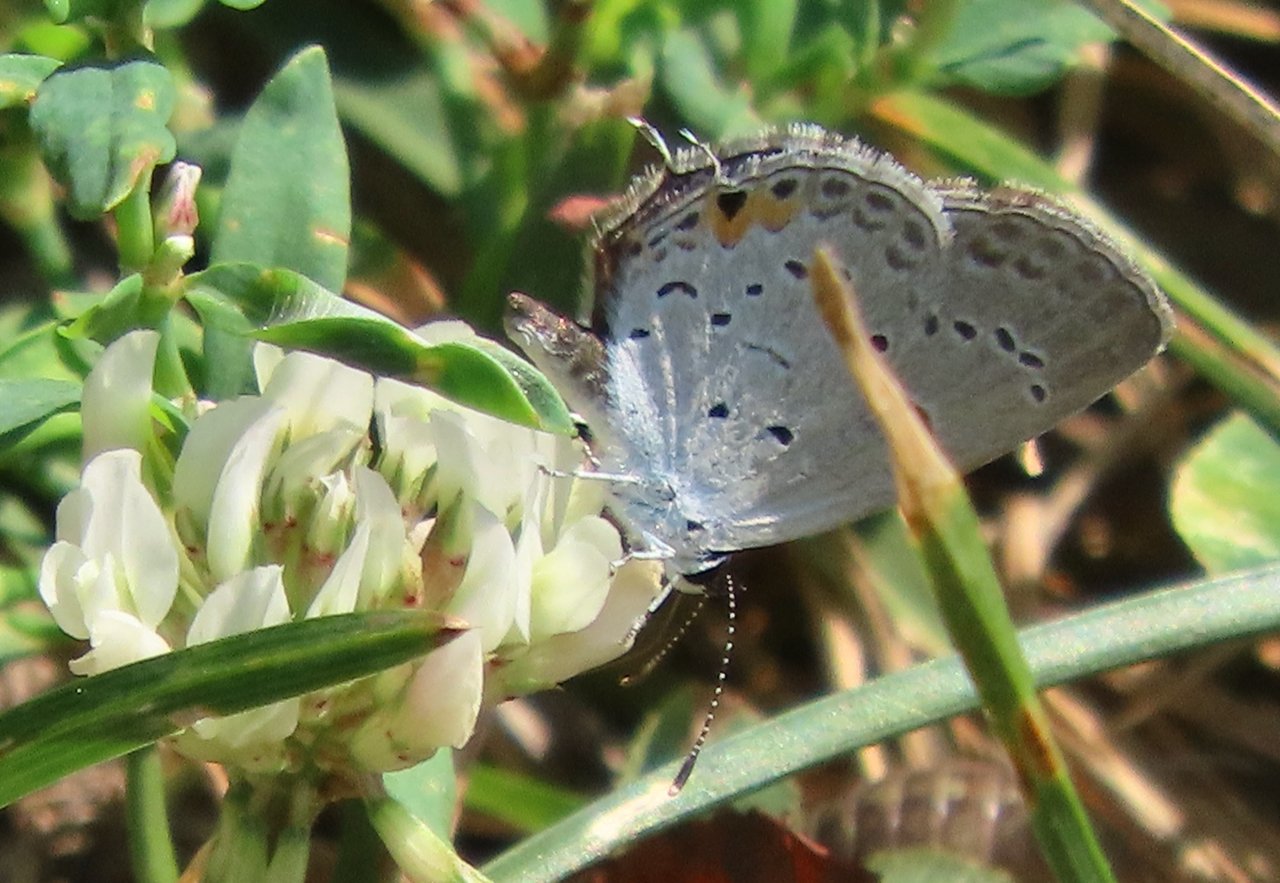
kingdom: Animalia
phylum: Arthropoda
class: Insecta
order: Lepidoptera
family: Lycaenidae
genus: Elkalyce
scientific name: Elkalyce comyntas
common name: Eastern Tailed-Blue
